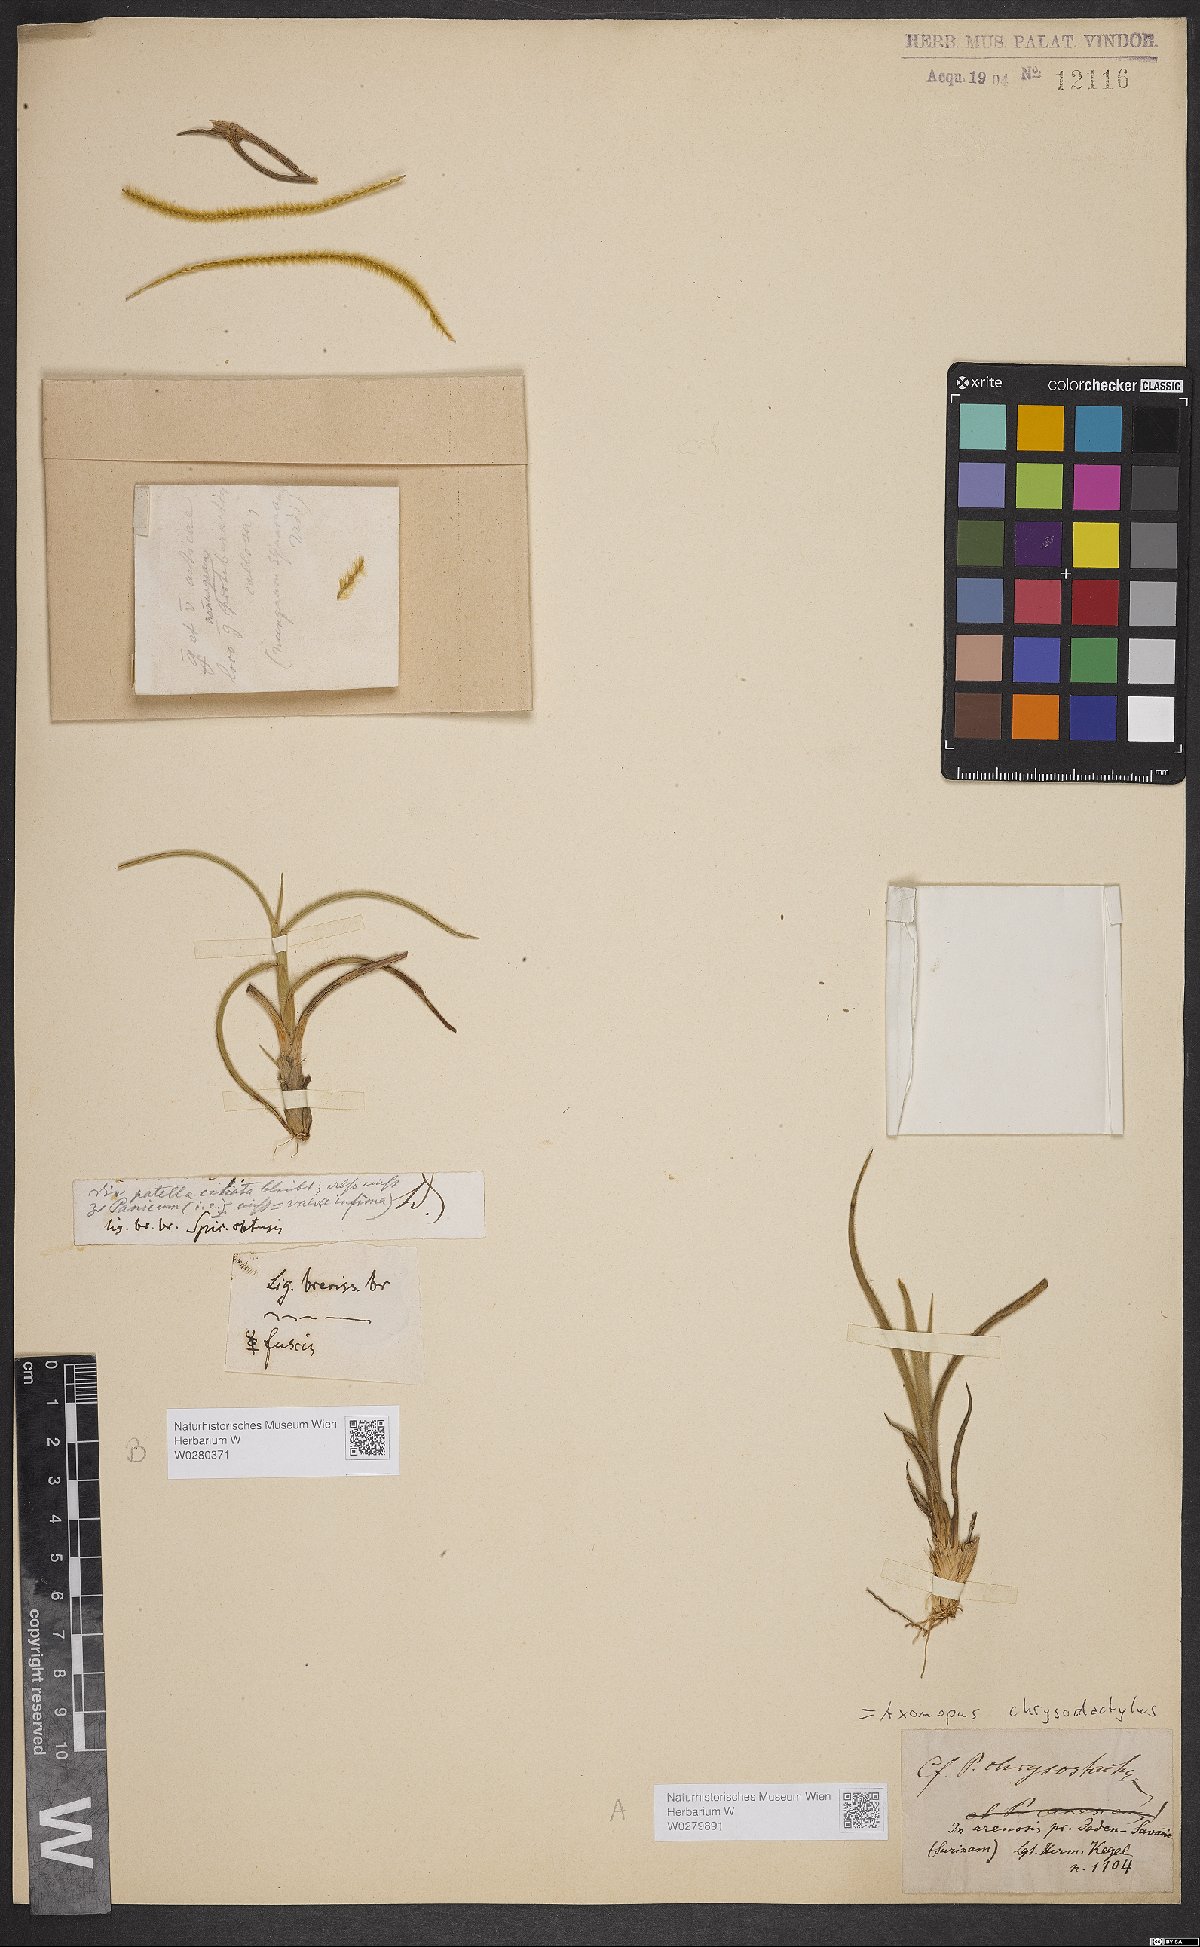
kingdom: Plantae
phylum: Tracheophyta
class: Liliopsida
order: Poales
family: Poaceae
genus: Axonopus
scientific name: Axonopus aureus
